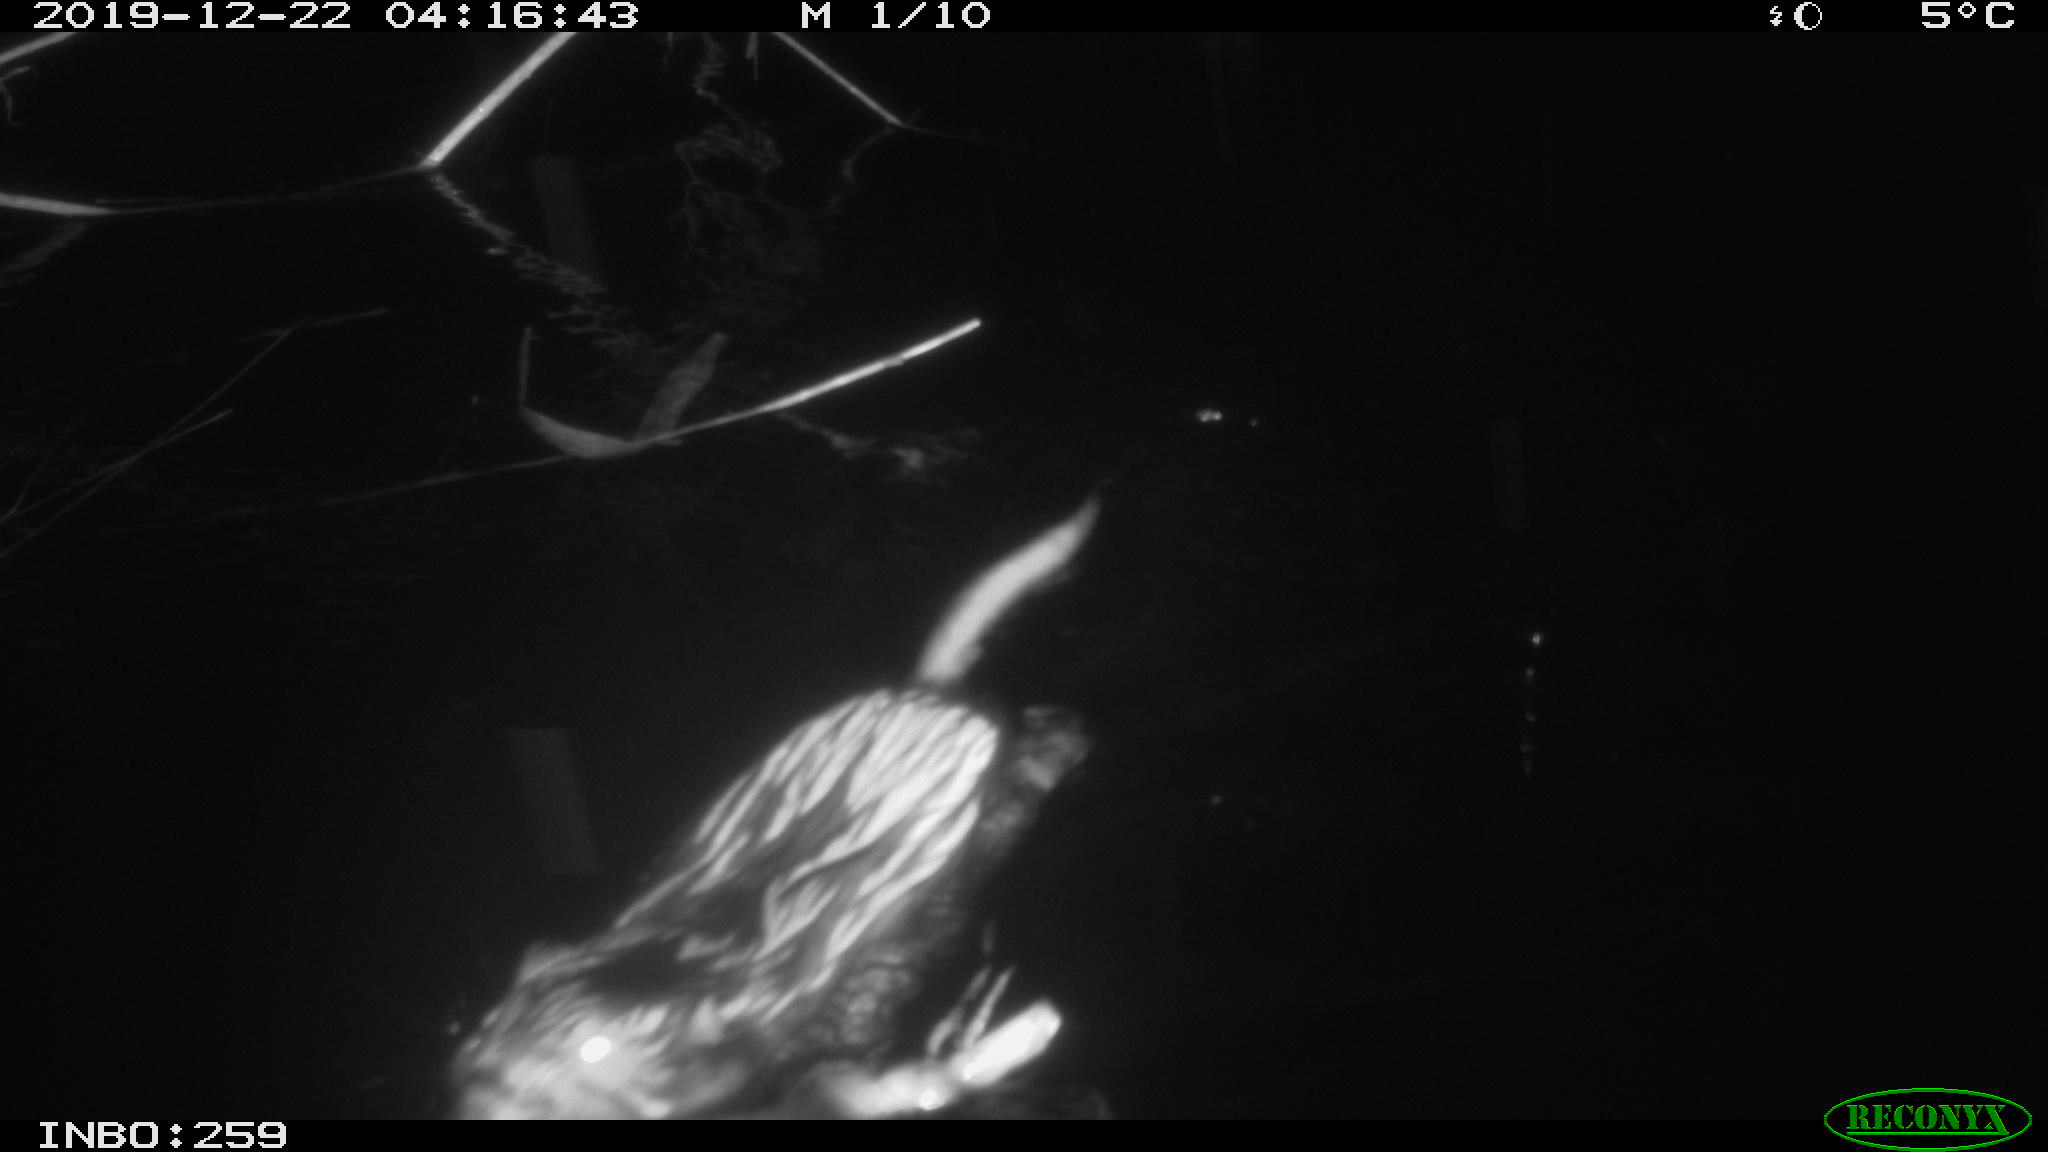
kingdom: Animalia
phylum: Chordata
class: Mammalia
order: Rodentia
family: Cricetidae
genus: Ondatra
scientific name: Ondatra zibethicus
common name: Muskrat
